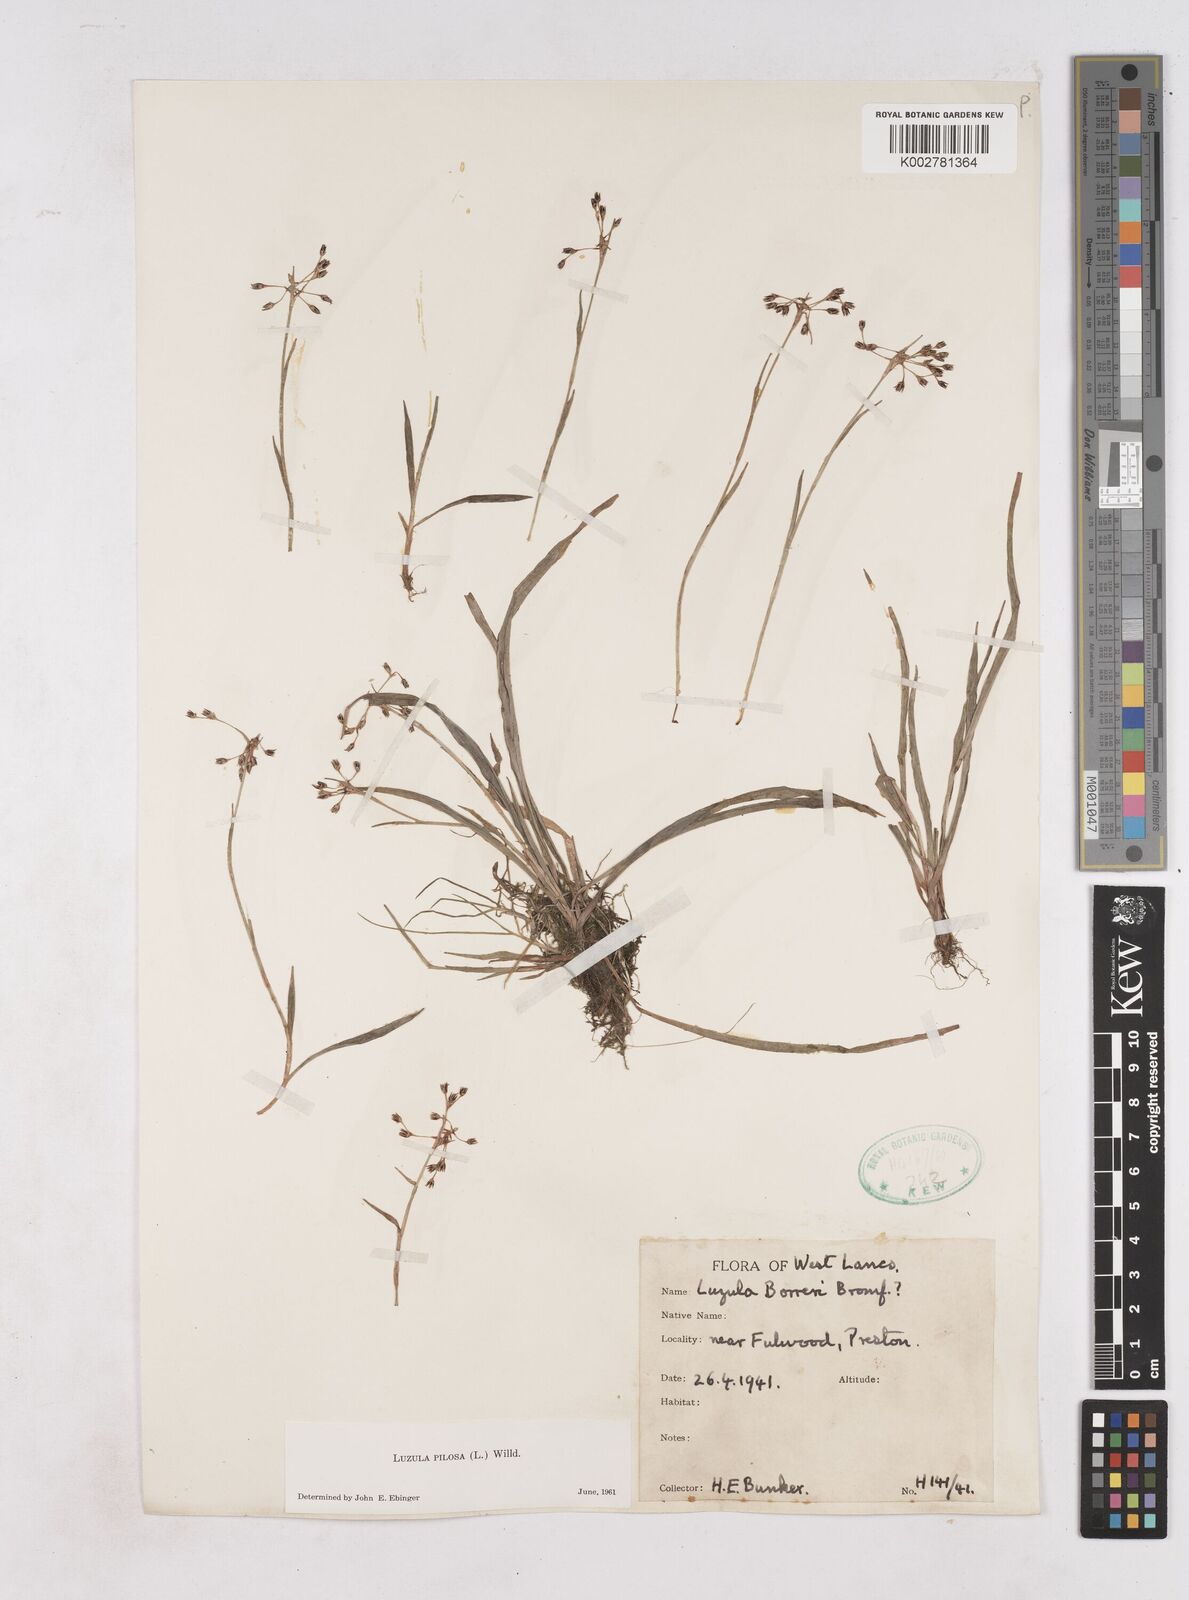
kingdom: Plantae
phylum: Tracheophyta
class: Liliopsida
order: Poales
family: Juncaceae
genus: Luzula
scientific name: Luzula pilosa
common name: Hairy wood-rush
